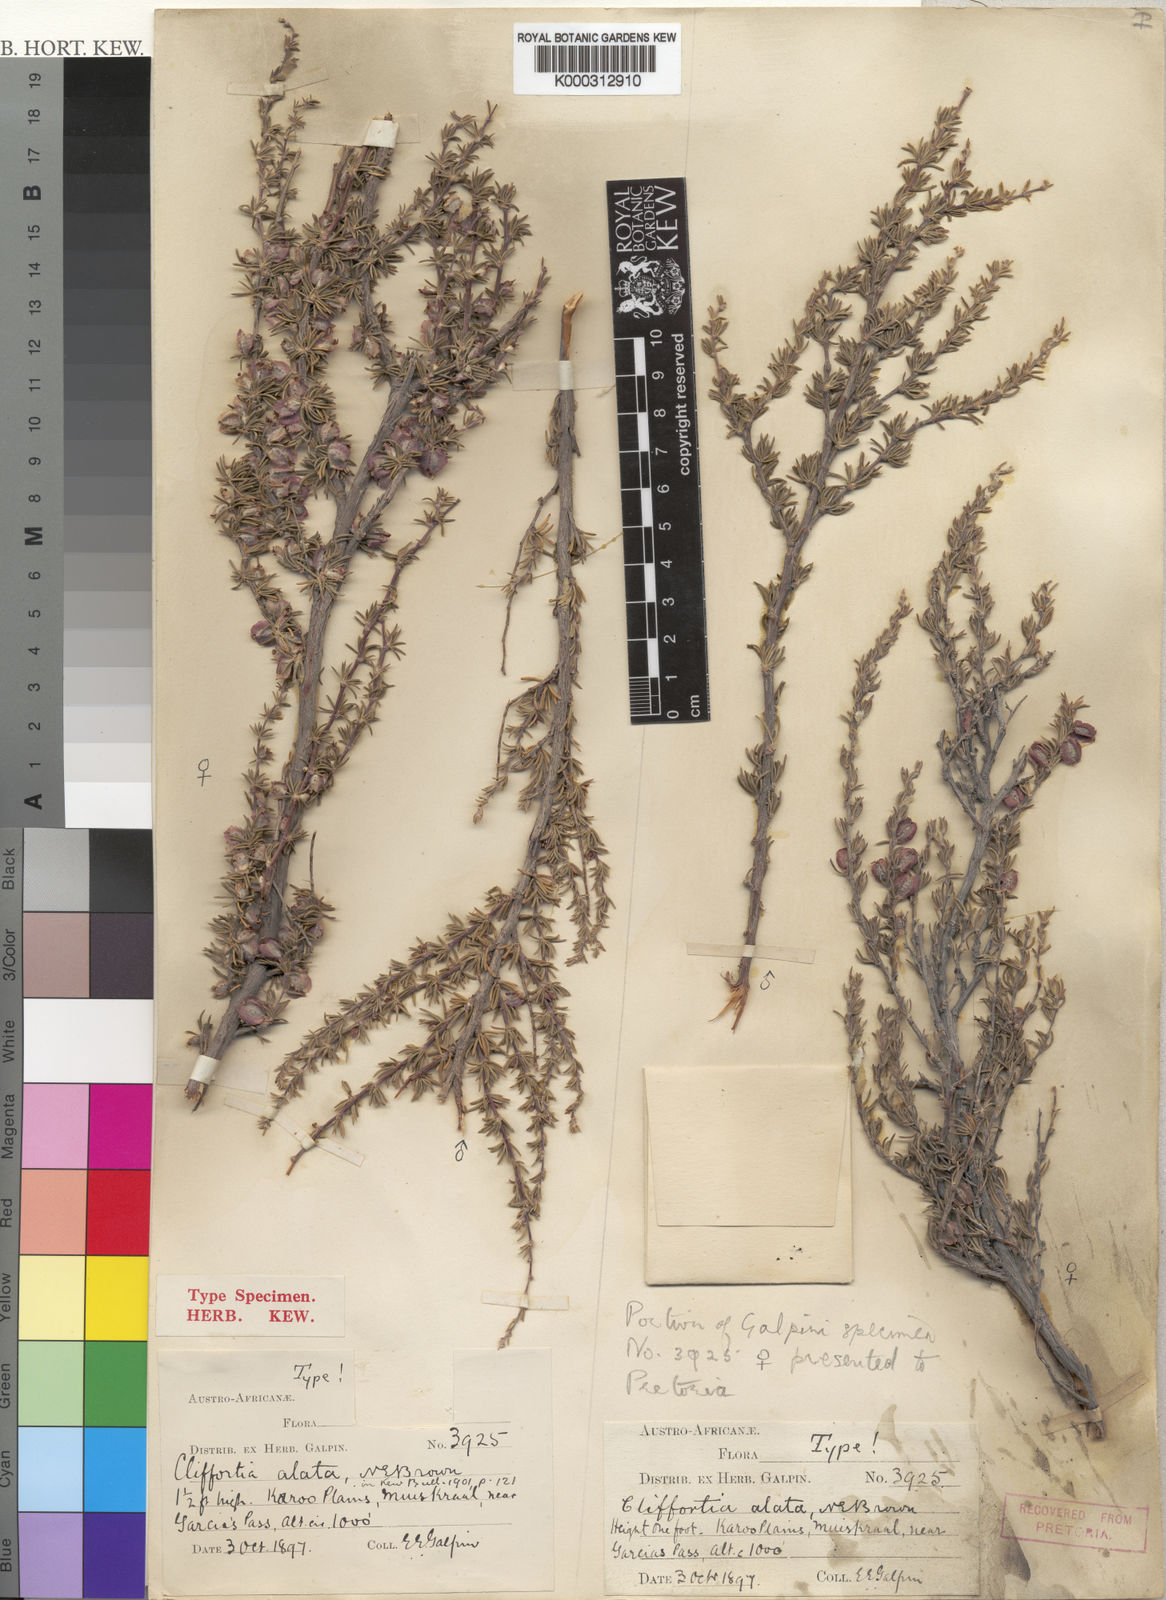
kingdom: Plantae
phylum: Tracheophyta
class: Magnoliopsida
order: Rosales
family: Rosaceae
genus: Cliffortia
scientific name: Cliffortia alata
